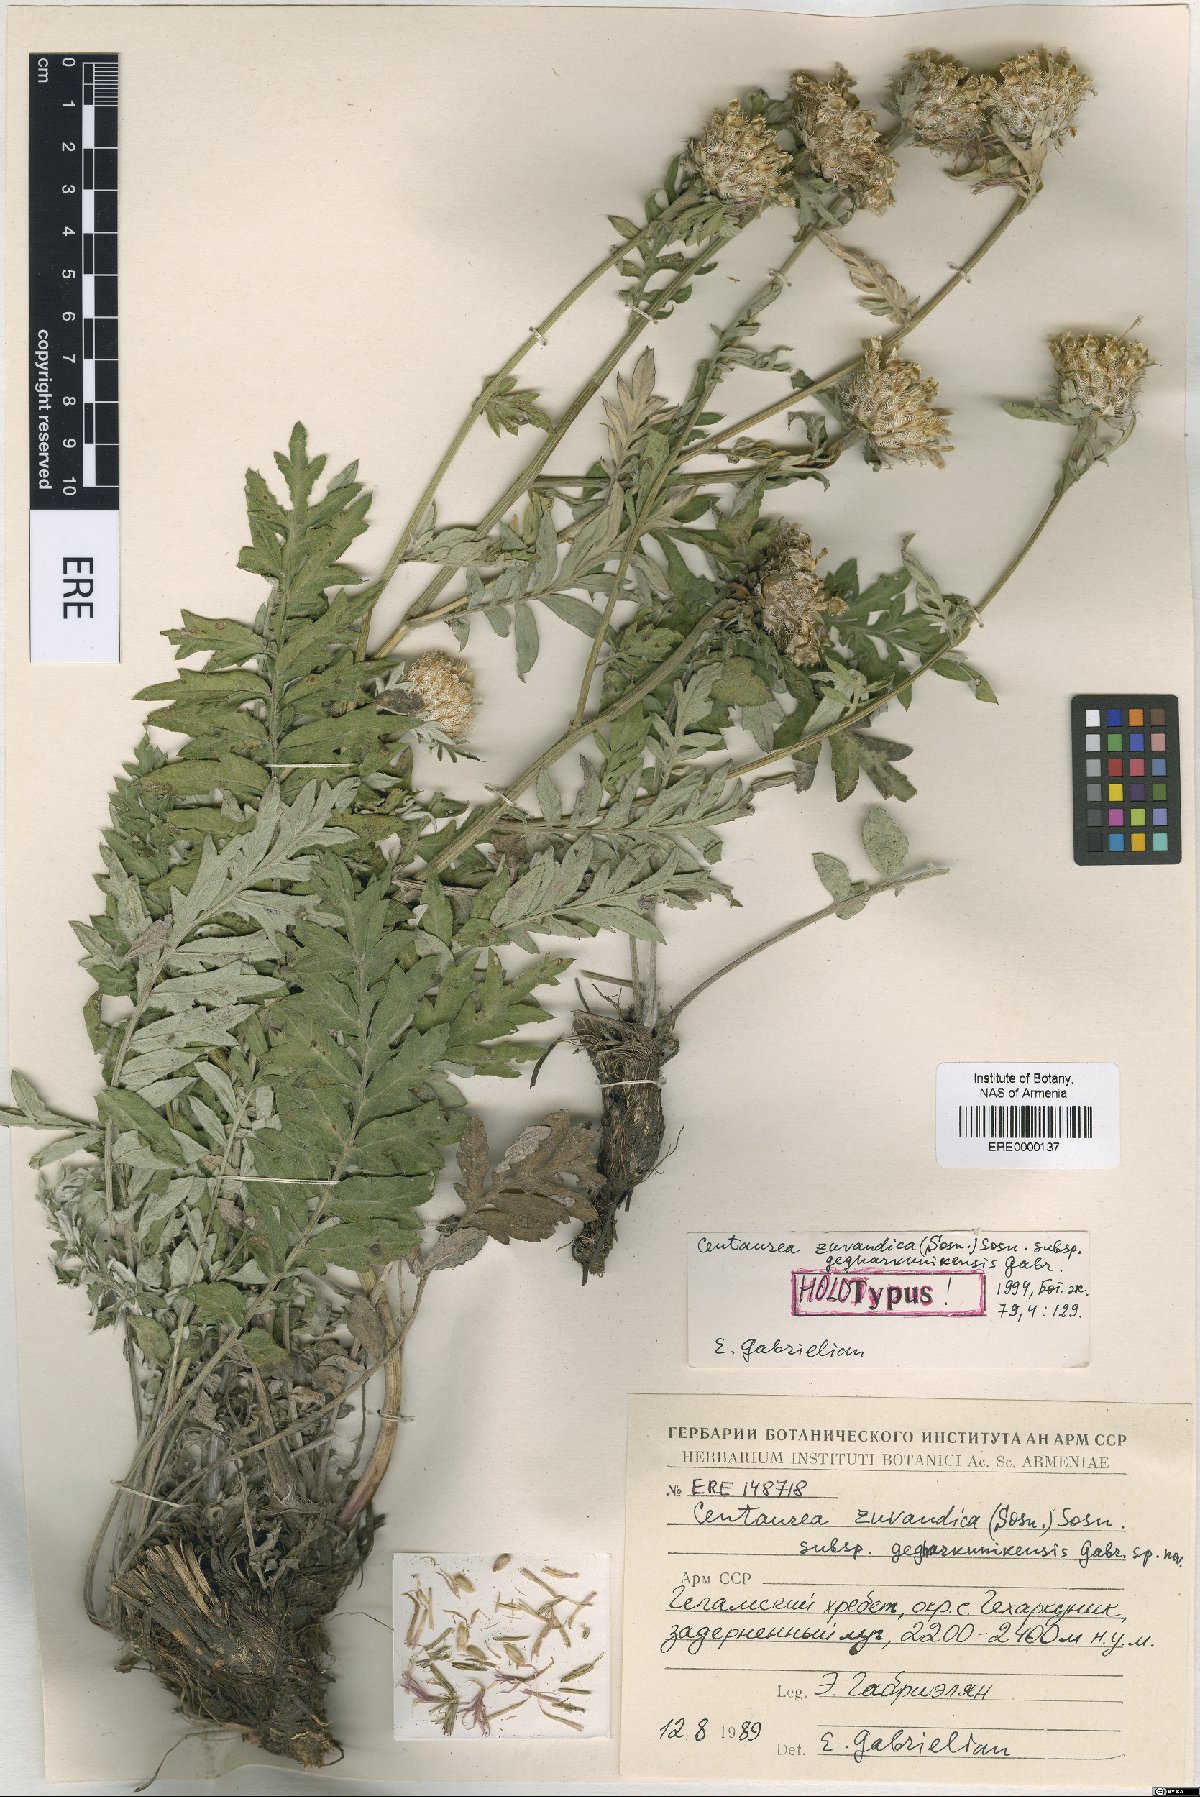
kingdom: Plantae
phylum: Tracheophyta
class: Magnoliopsida
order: Asterales
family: Asteraceae
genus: Psephellus
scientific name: Psephellus zuvandicus
